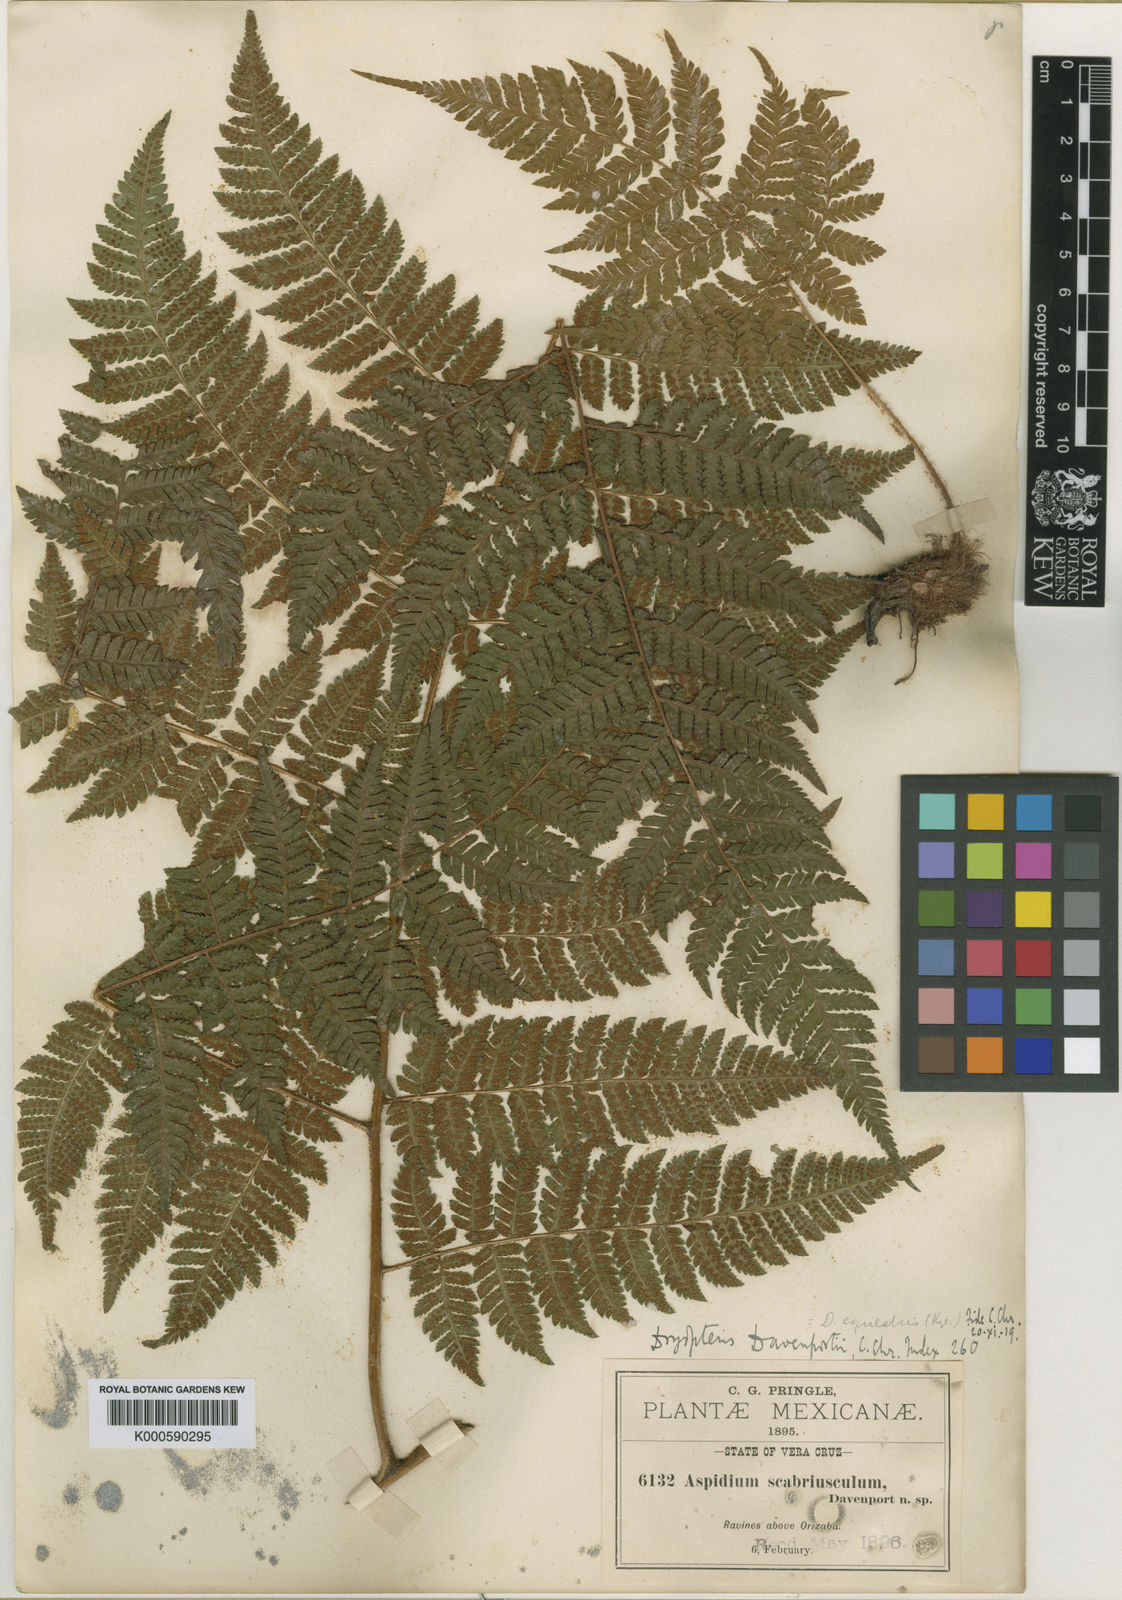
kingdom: Plantae
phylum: Tracheophyta
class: Polypodiopsida
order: Polypodiales
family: Dryopteridaceae
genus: Ctenitis
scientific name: Ctenitis equestris
